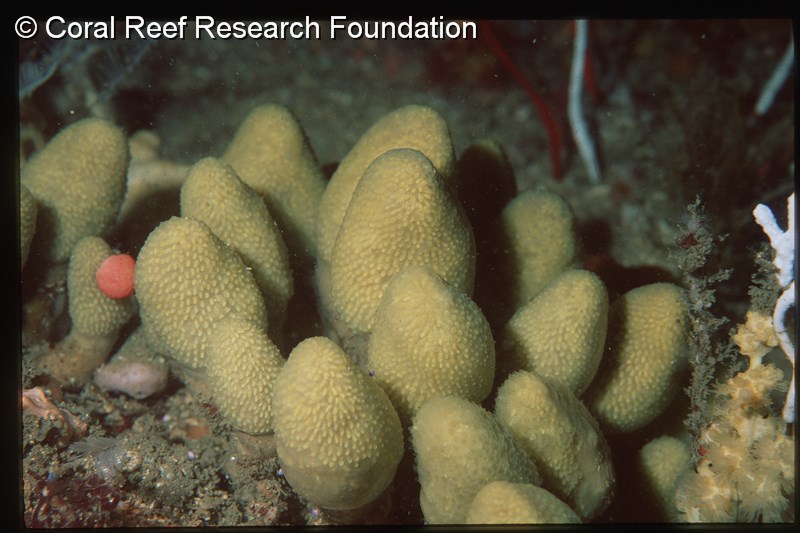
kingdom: Animalia
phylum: Chordata
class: Ascidiacea
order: Aplousobranchia
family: Pseudodistomidae
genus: Pseudodistoma
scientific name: Pseudodistoma africanum
